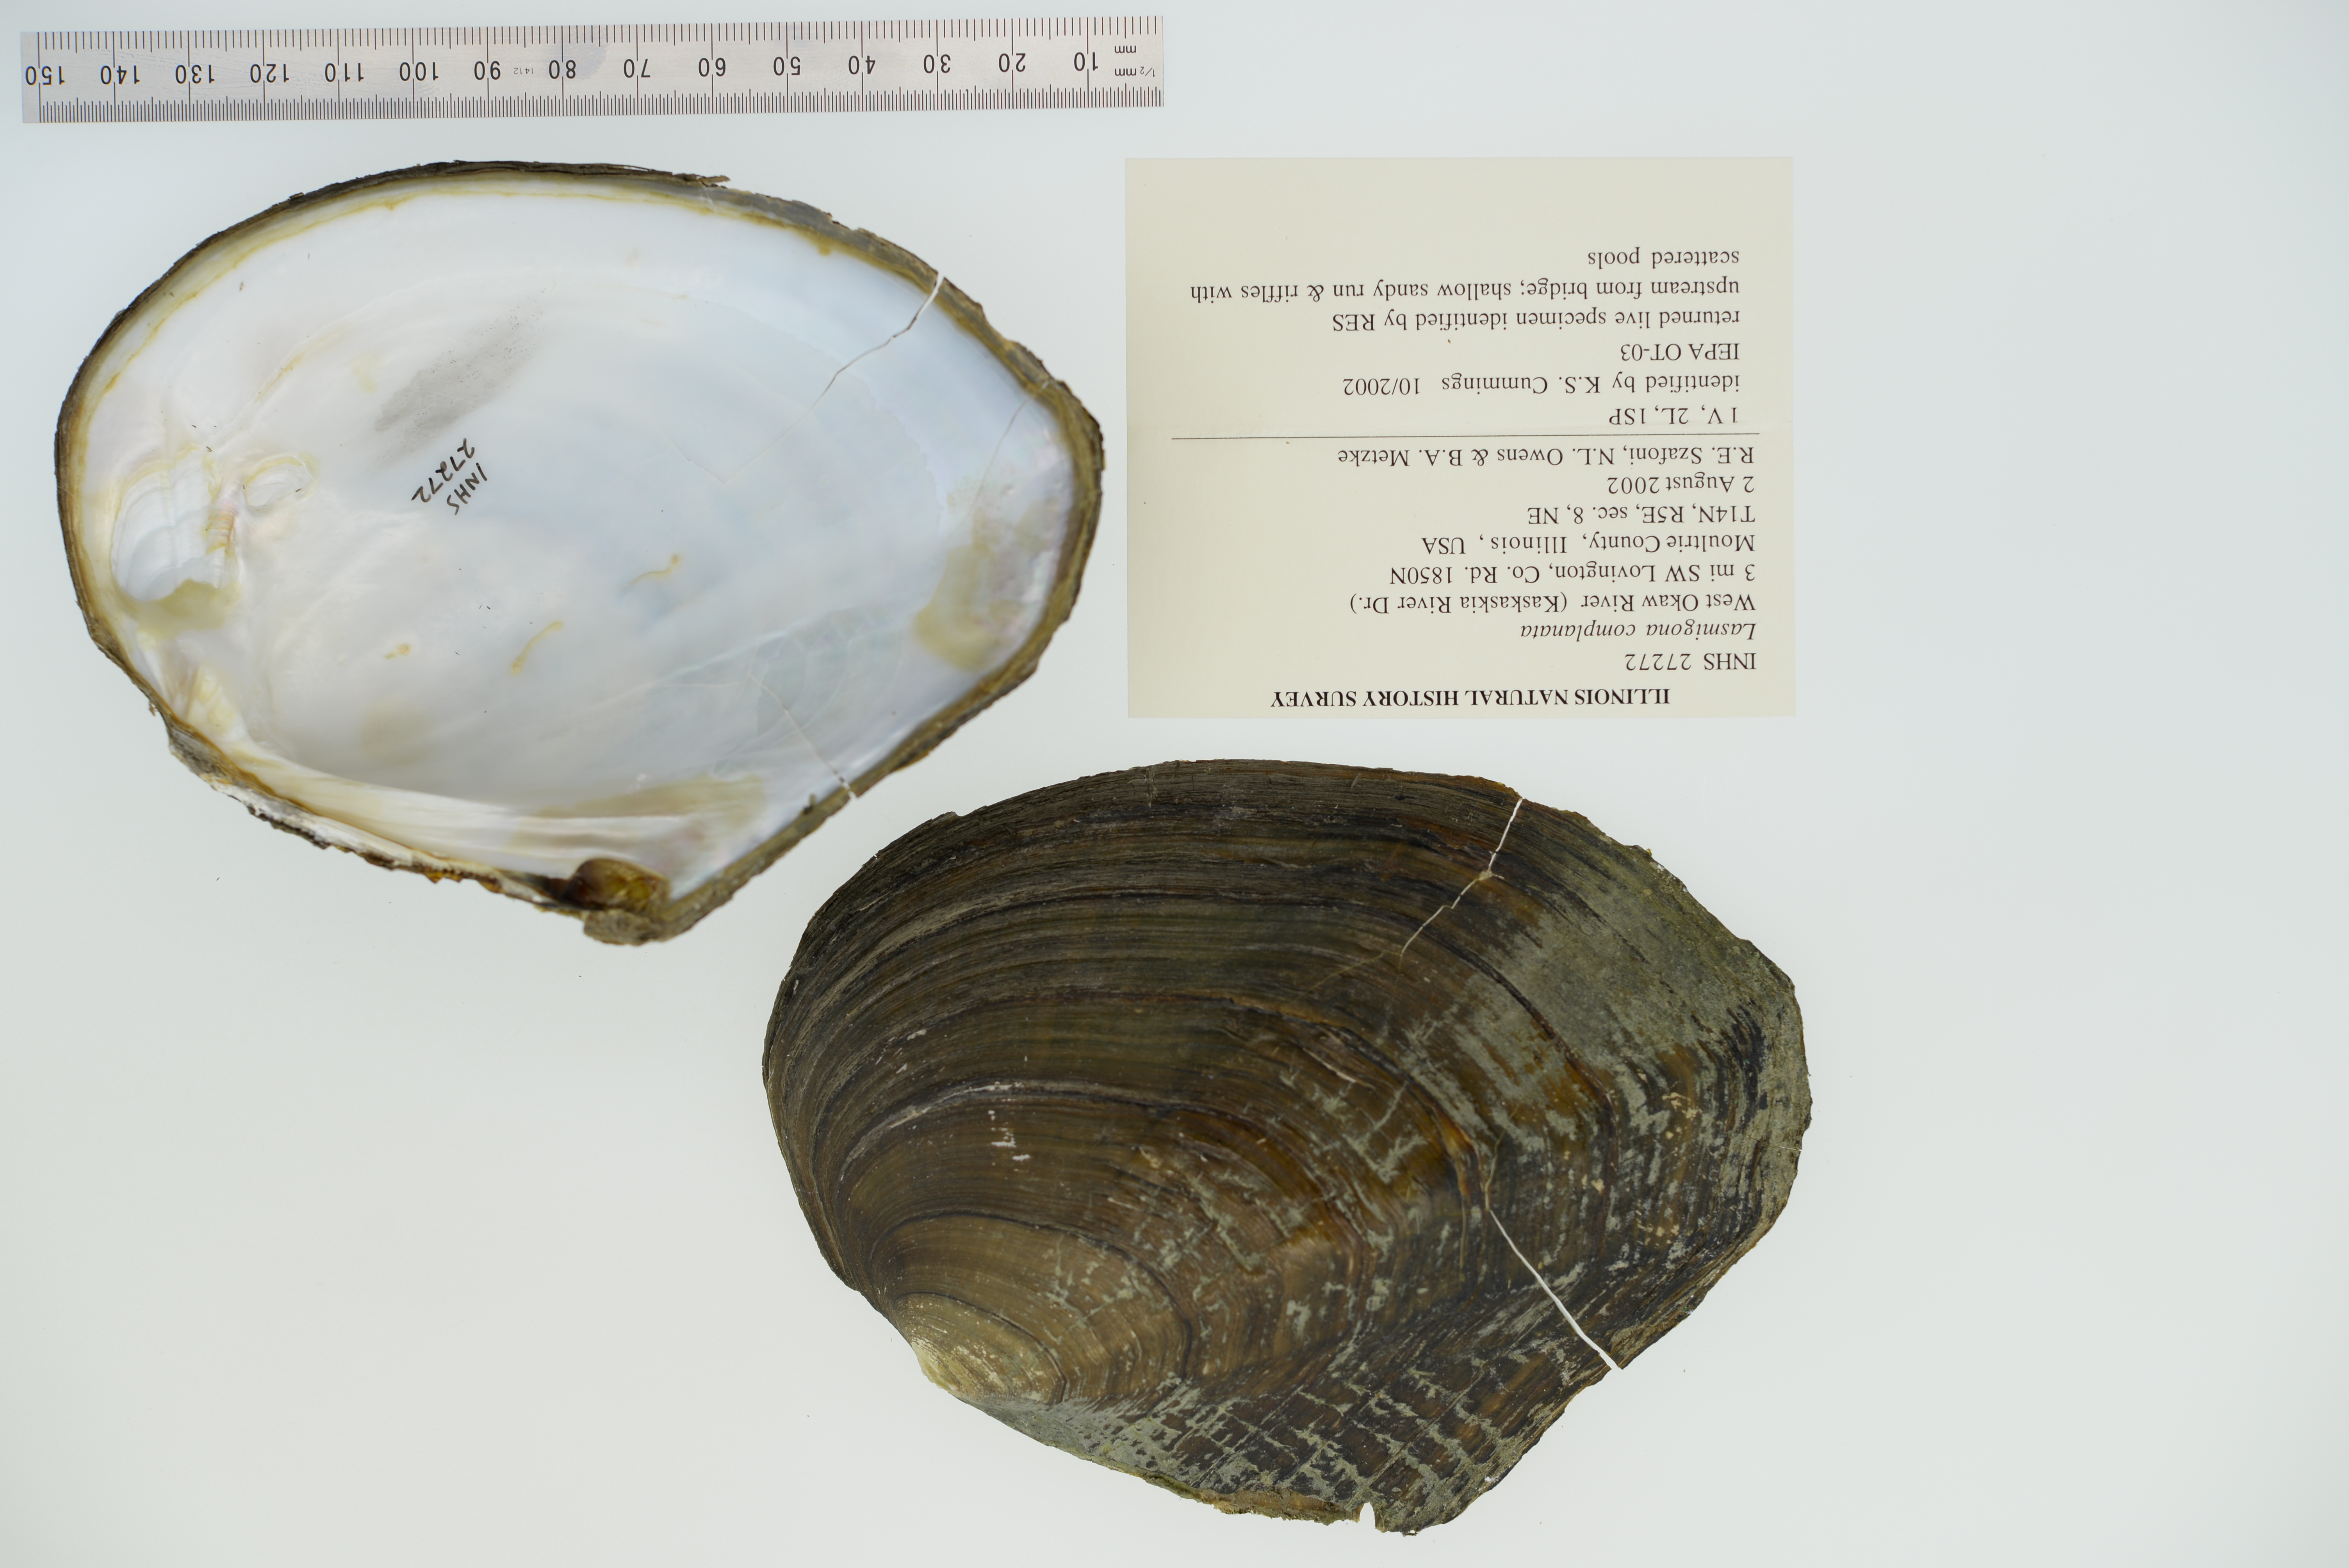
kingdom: Animalia
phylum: Mollusca
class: Bivalvia
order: Unionida
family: Unionidae
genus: Lasmigona
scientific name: Lasmigona complanata
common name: White heelsplitter
